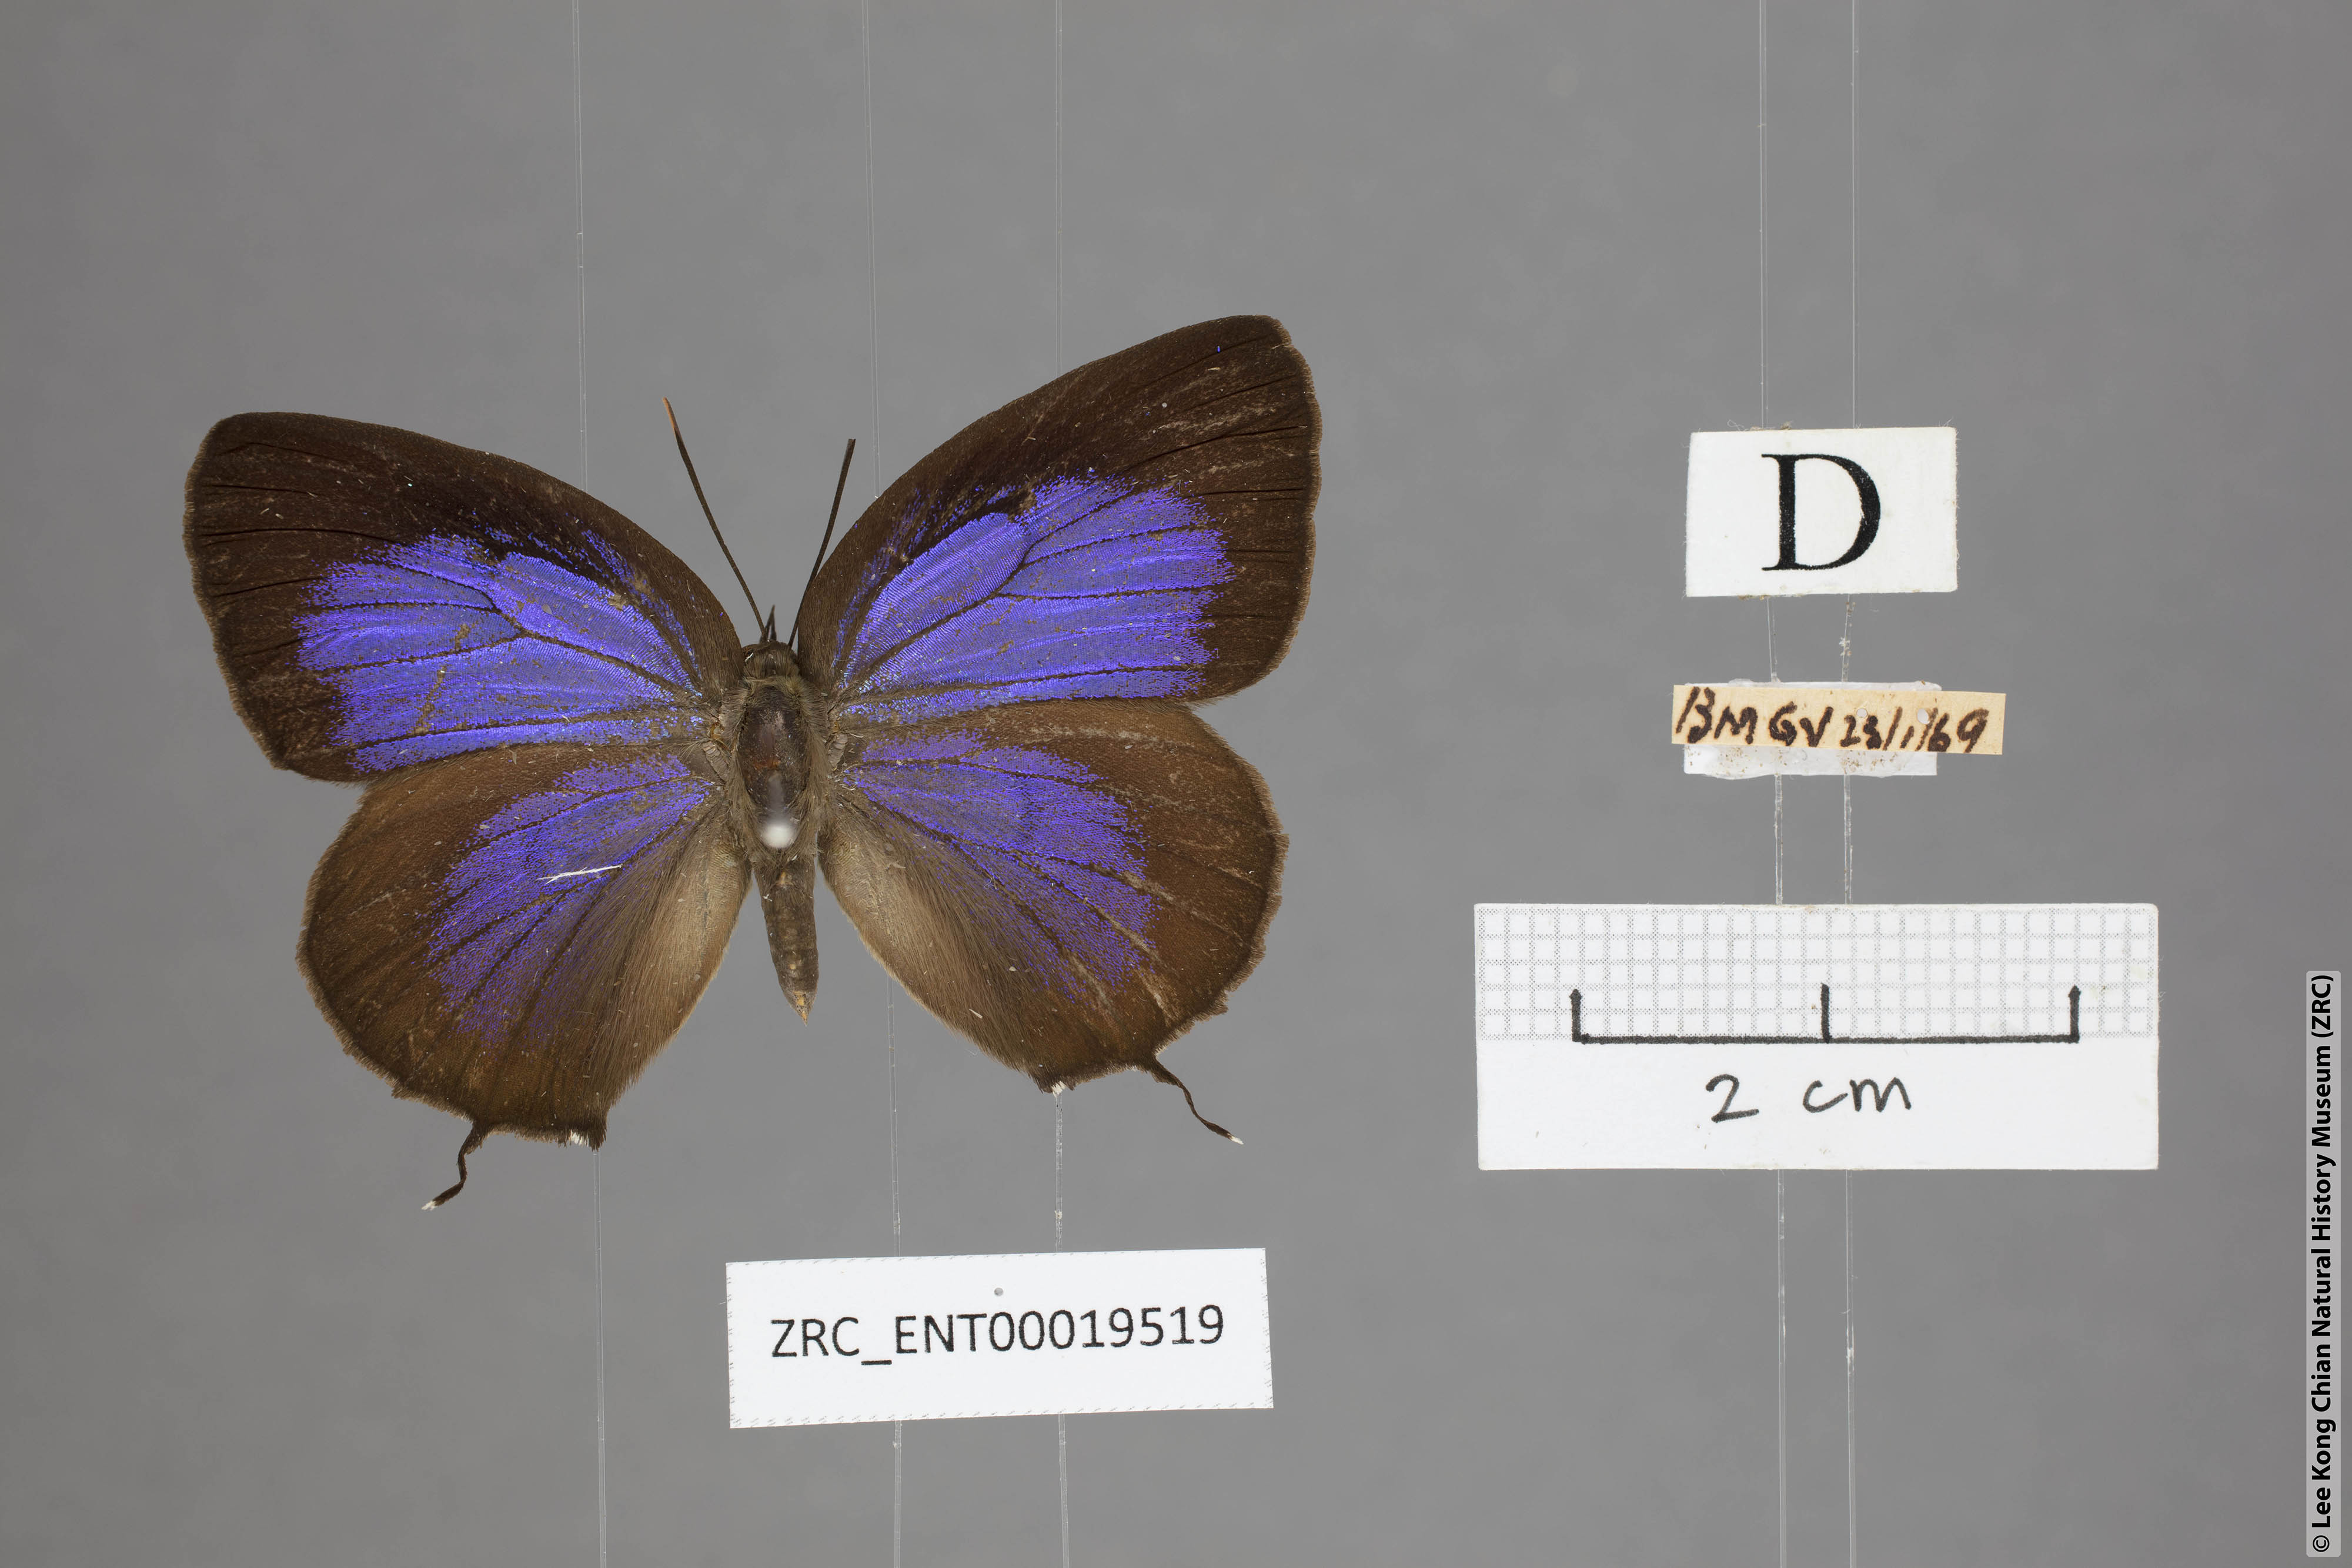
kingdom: Animalia
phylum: Arthropoda
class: Insecta
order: Lepidoptera
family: Lycaenidae
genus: Arhopala
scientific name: Arhopala horsfieldi
